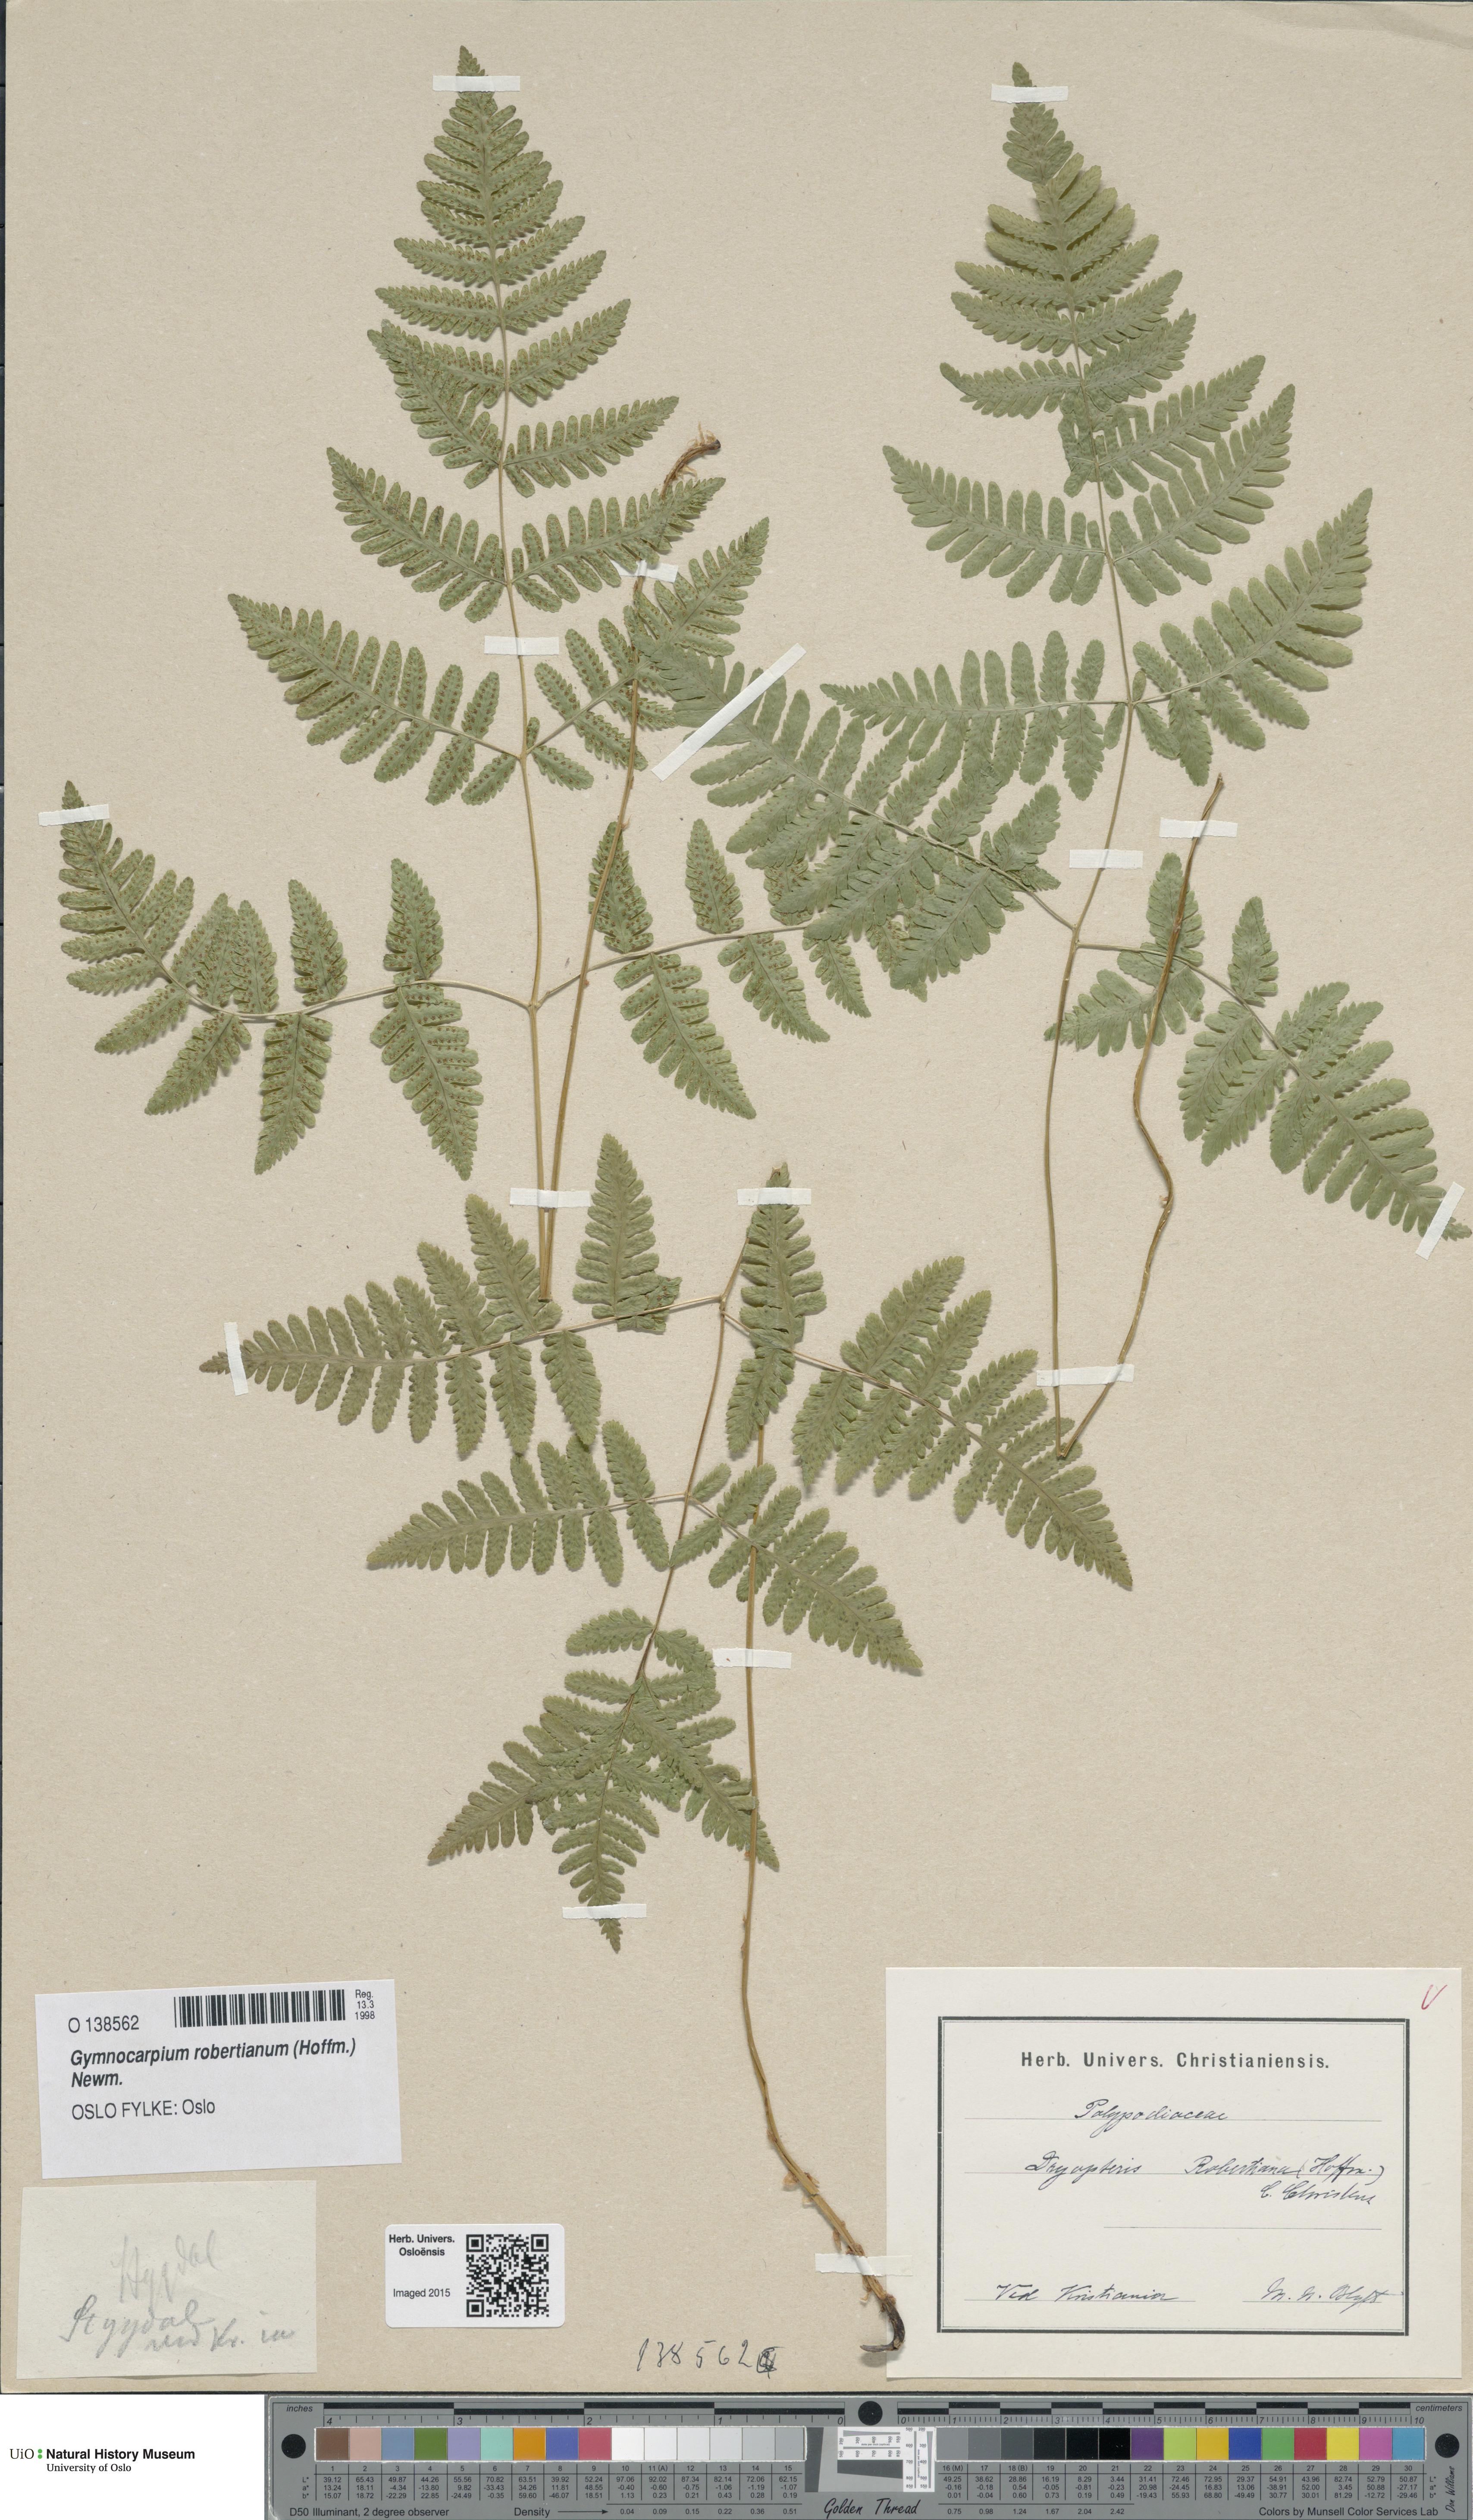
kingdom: Plantae
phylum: Tracheophyta
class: Polypodiopsida
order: Polypodiales
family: Cystopteridaceae
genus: Gymnocarpium
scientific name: Gymnocarpium robertianum
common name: Limestone fern
